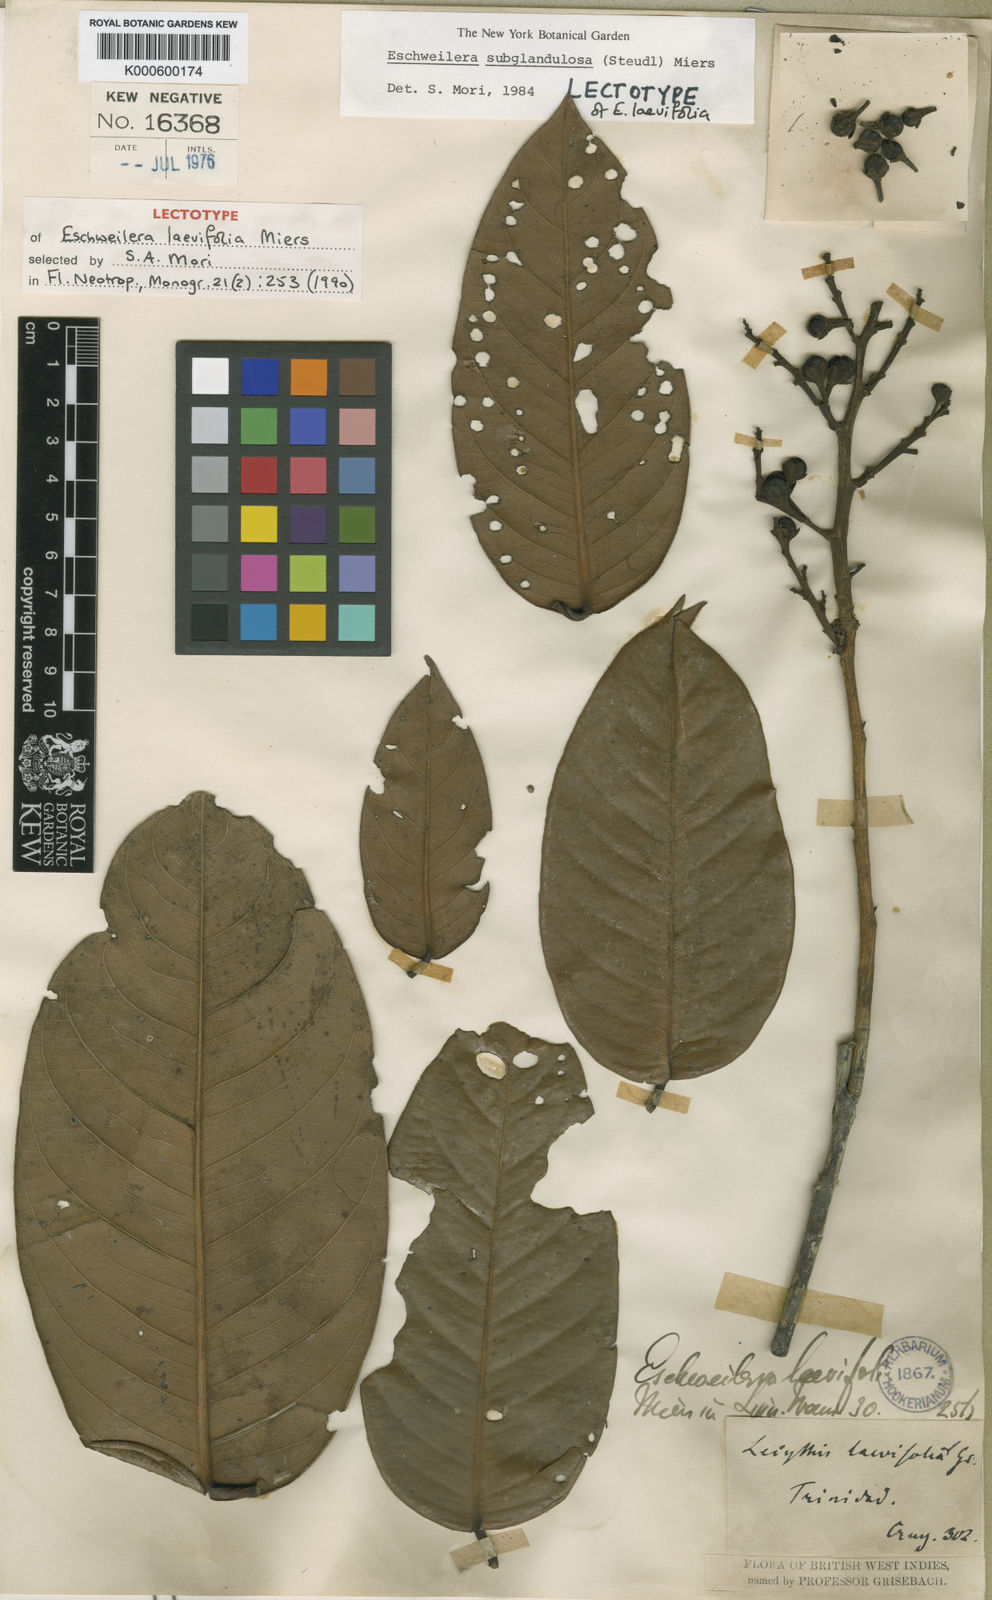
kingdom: Plantae
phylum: Tracheophyta
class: Magnoliopsida
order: Ericales
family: Lecythidaceae
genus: Eschweilera
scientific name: Eschweilera subglandulosa
